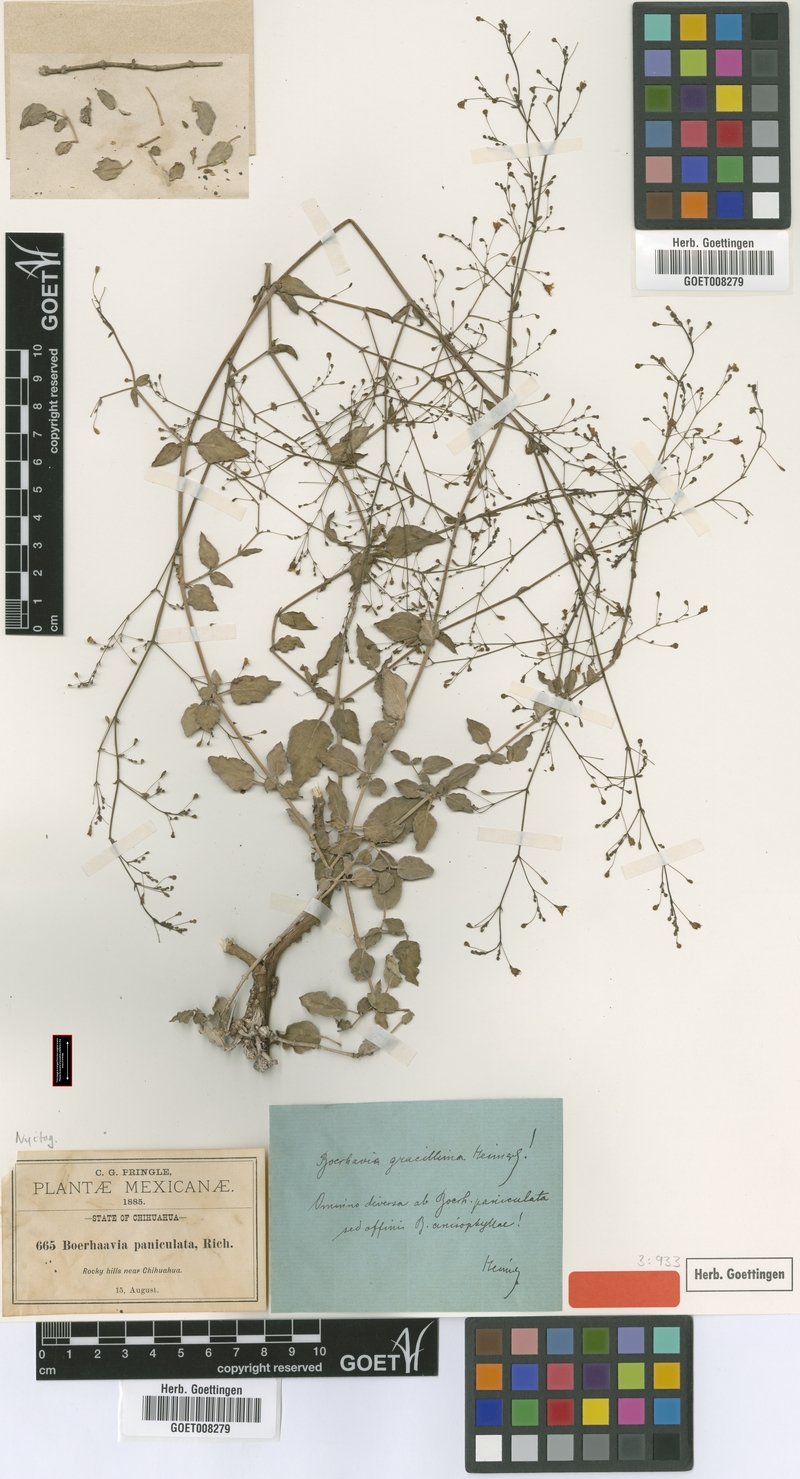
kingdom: Plantae
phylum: Tracheophyta
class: Magnoliopsida
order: Caryophyllales
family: Nyctaginaceae
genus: Boerhavia
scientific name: Boerhavia gracillima
